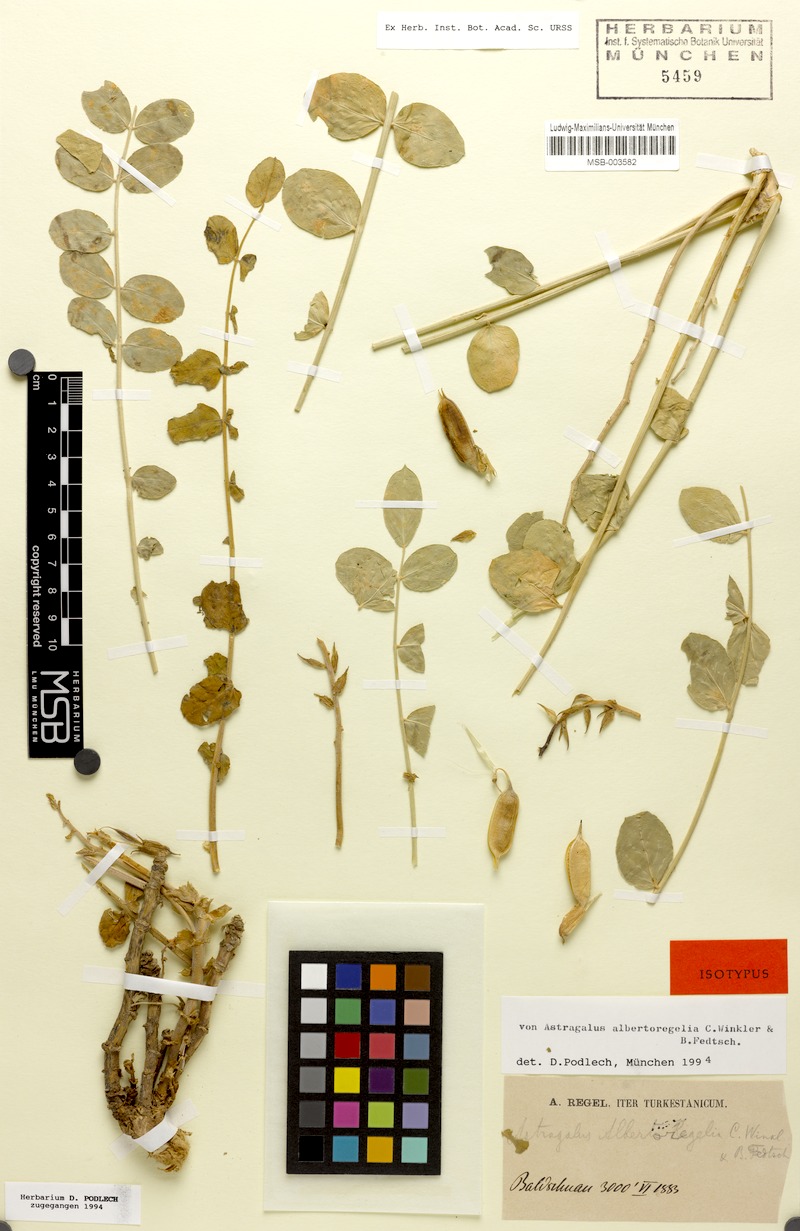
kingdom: Plantae
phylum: Tracheophyta
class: Magnoliopsida
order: Fabales
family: Fabaceae
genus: Astragalus
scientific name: Astragalus albertoregelia
